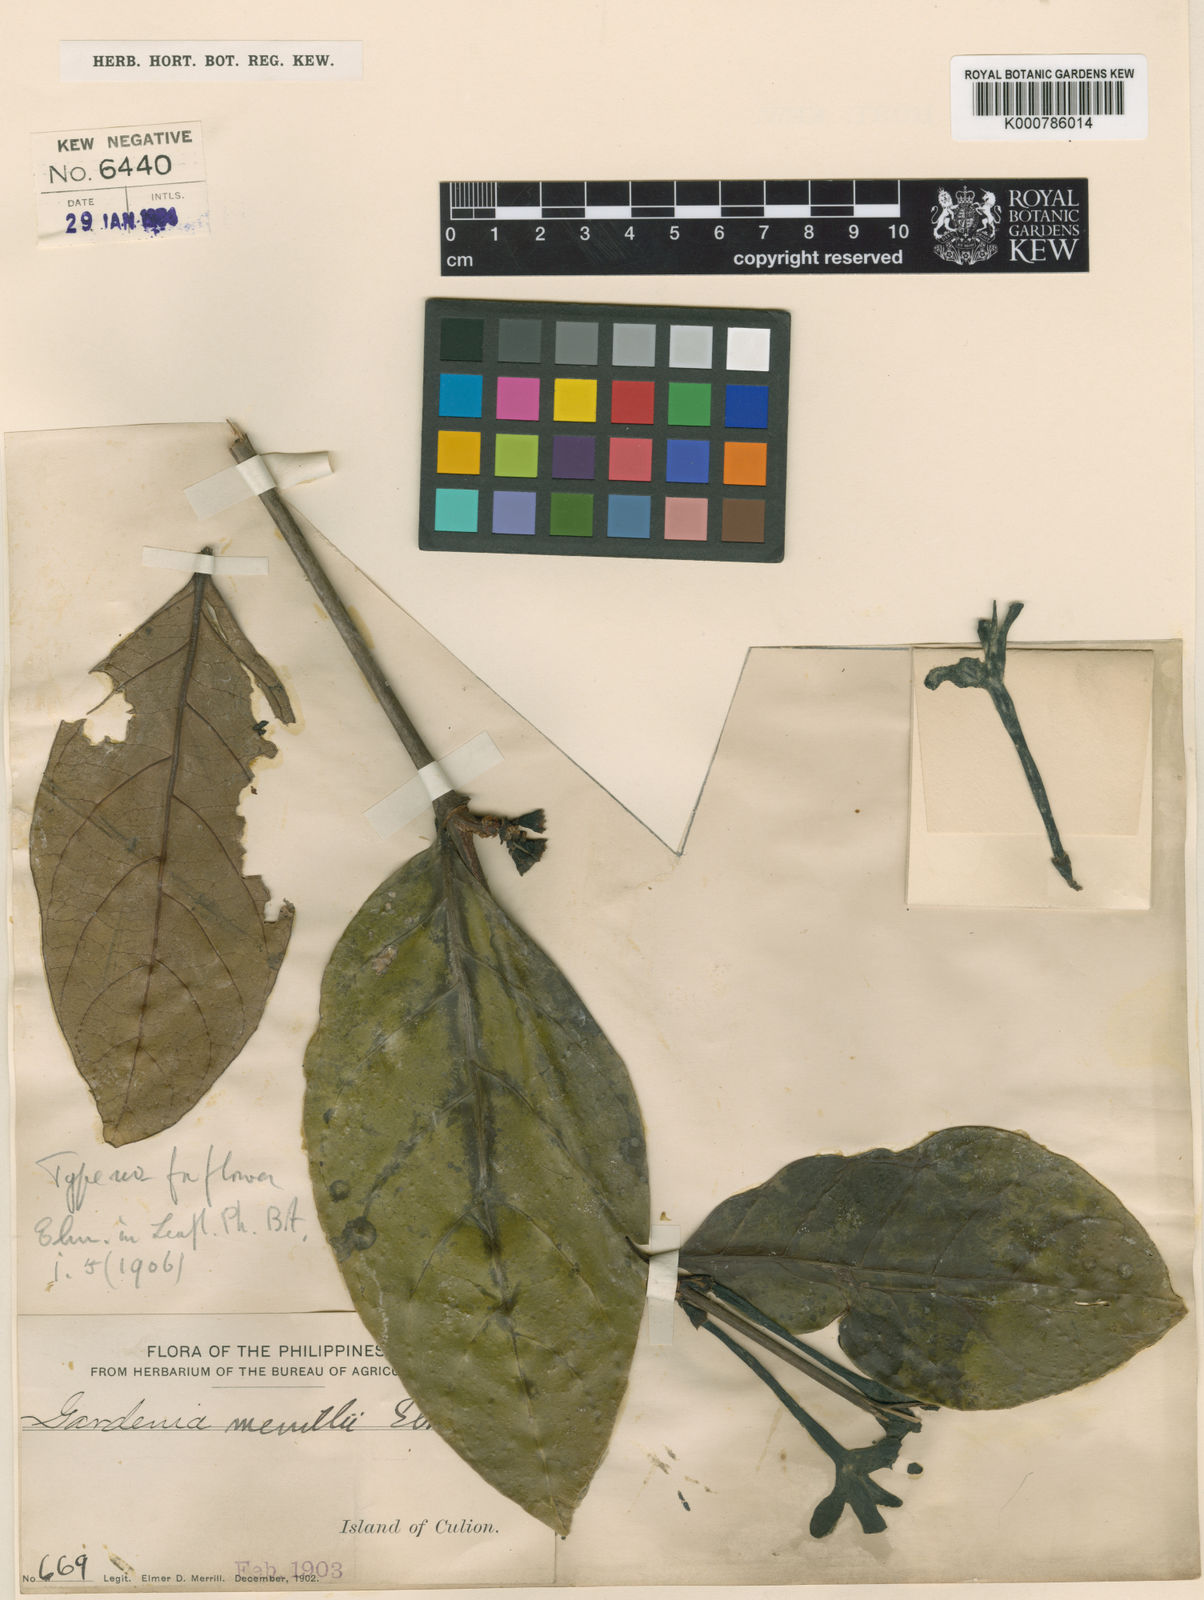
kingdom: Plantae
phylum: Tracheophyta
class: Magnoliopsida
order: Gentianales
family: Rubiaceae
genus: Ridsdalea
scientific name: Ridsdalea merrillii
